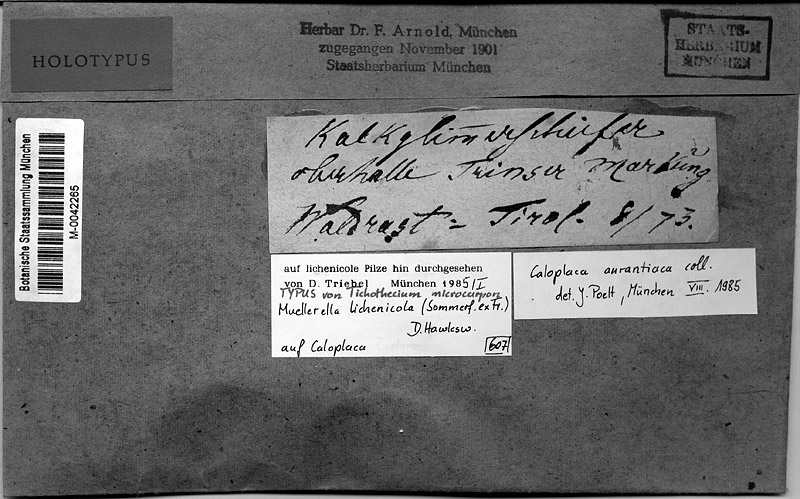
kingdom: Fungi
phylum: Ascomycota
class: Lecanoromycetes
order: Teloschistales
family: Teloschistaceae
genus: Variospora
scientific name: Variospora aurantia
